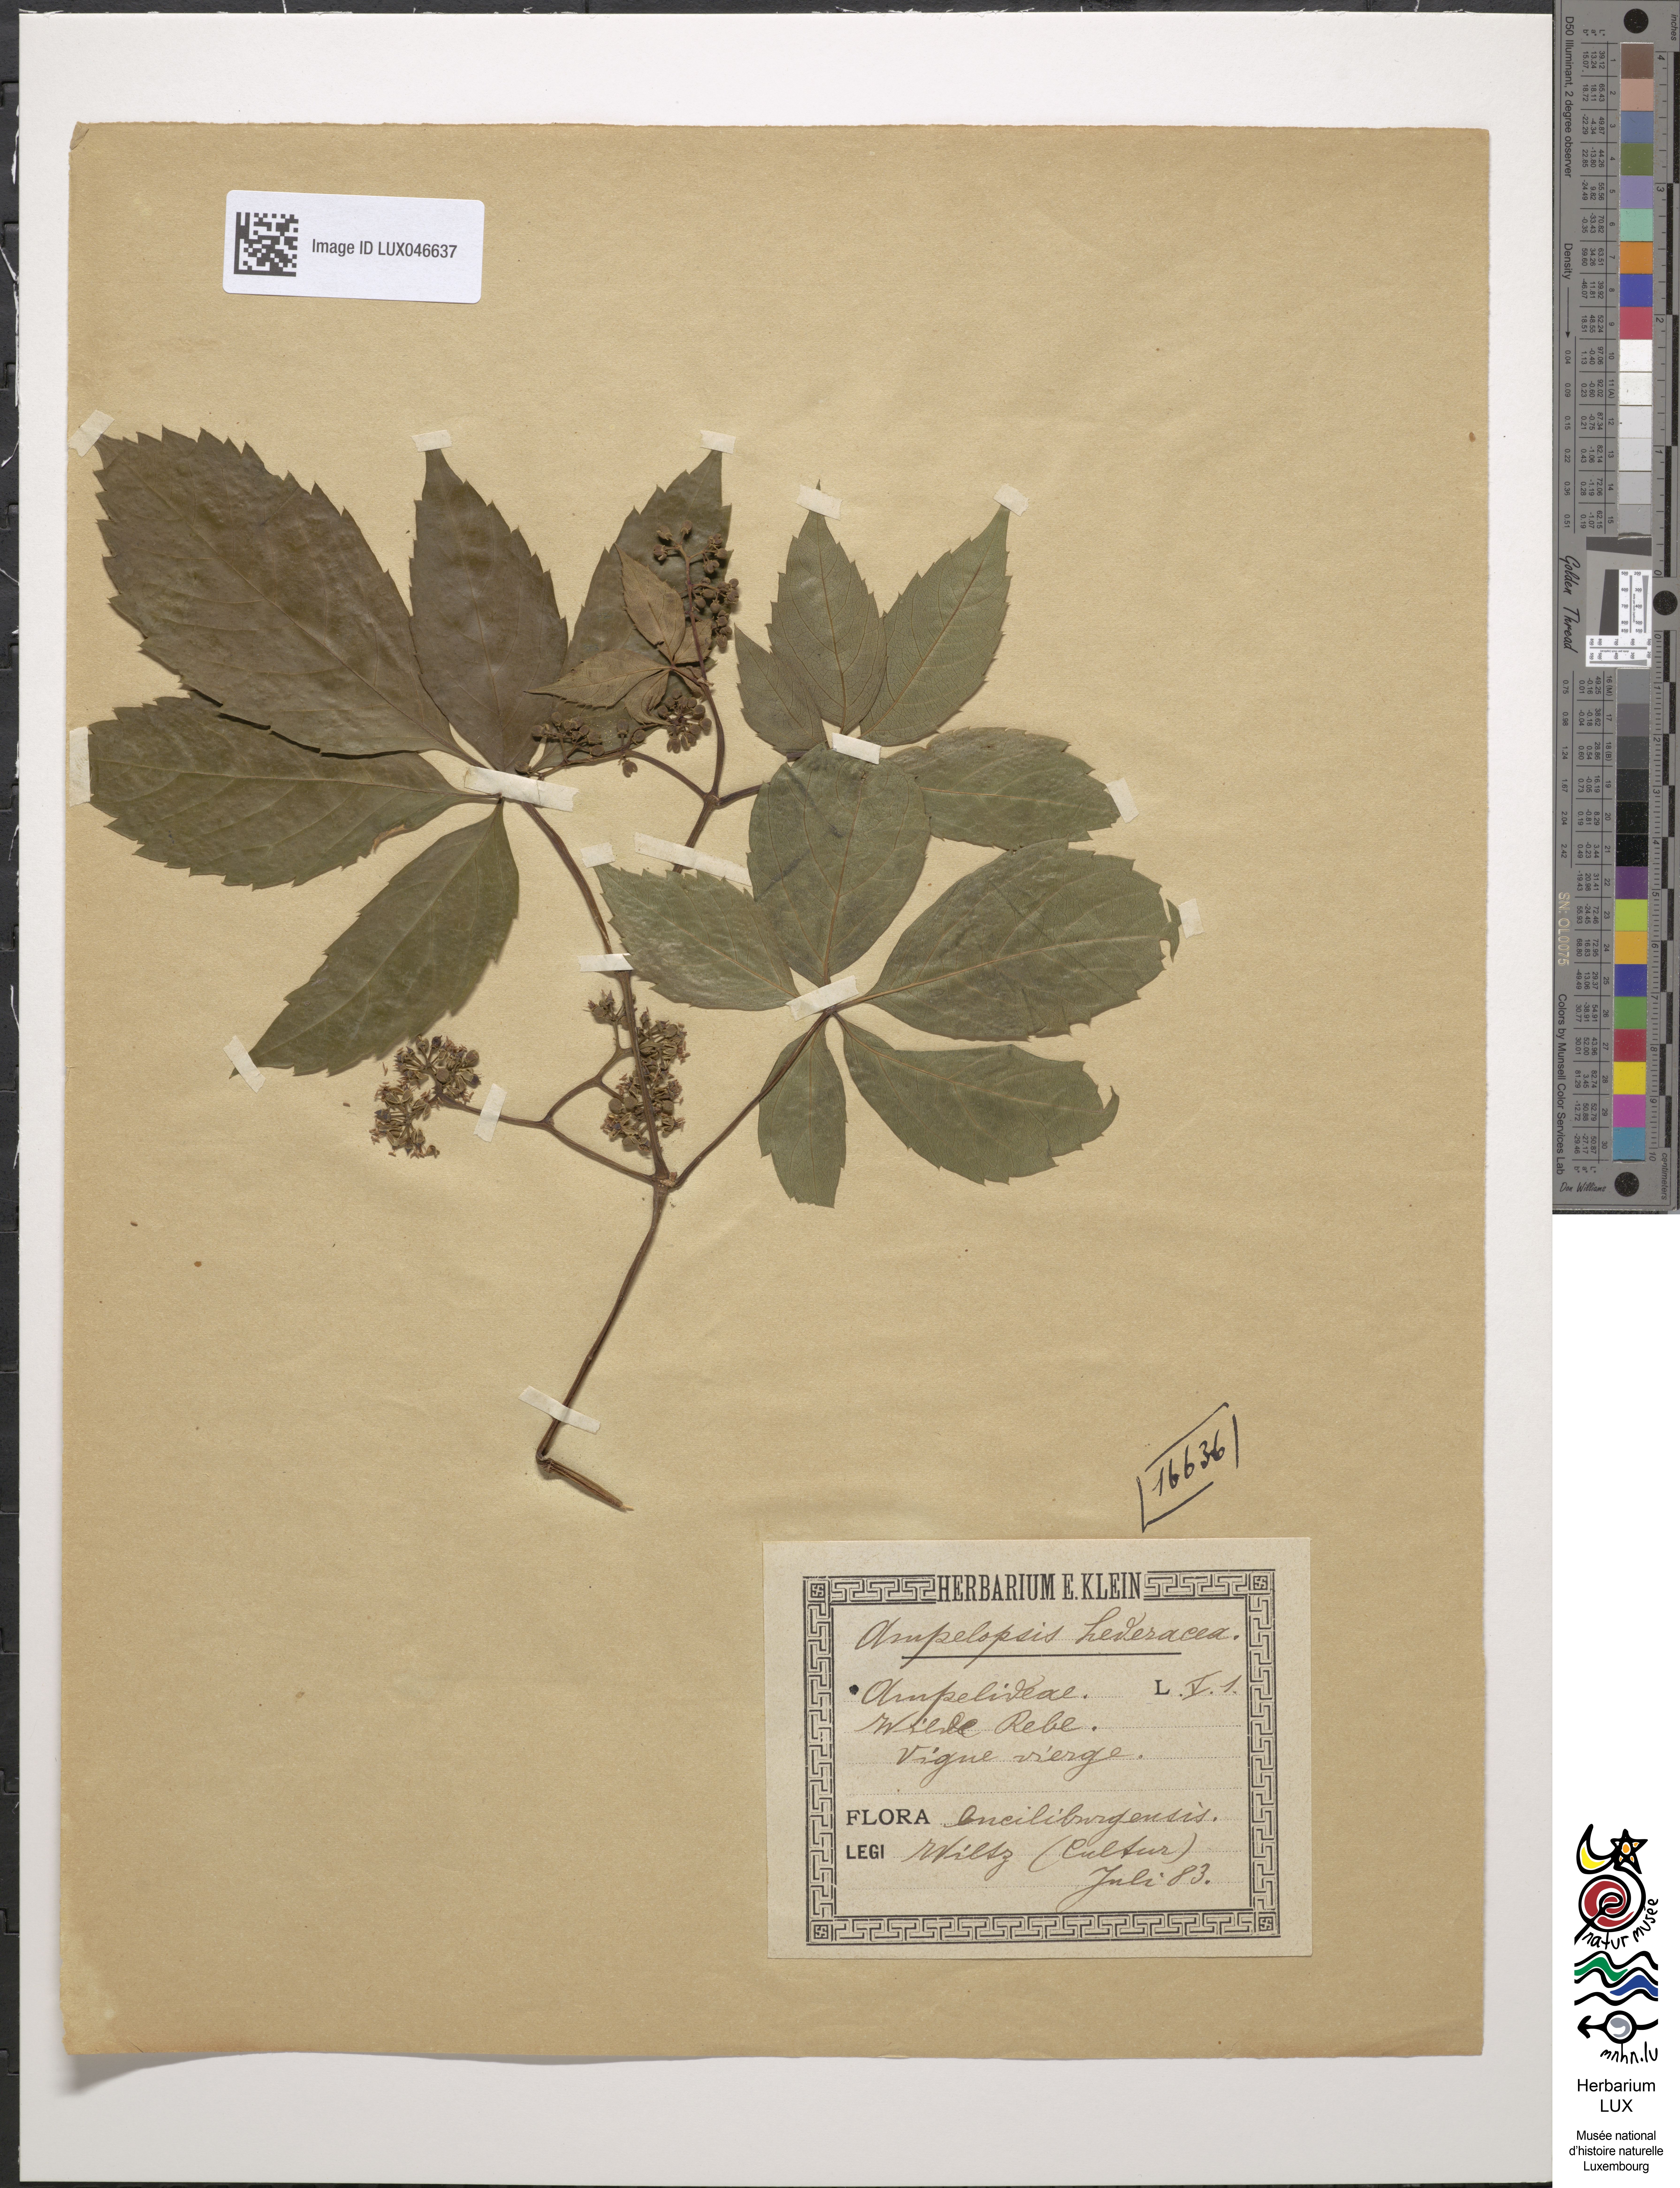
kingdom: Plantae
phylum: Tracheophyta
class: Magnoliopsida
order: Vitales
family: Vitaceae
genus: Parthenocissus
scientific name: Parthenocissus inserta
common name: False virginia-creeper
